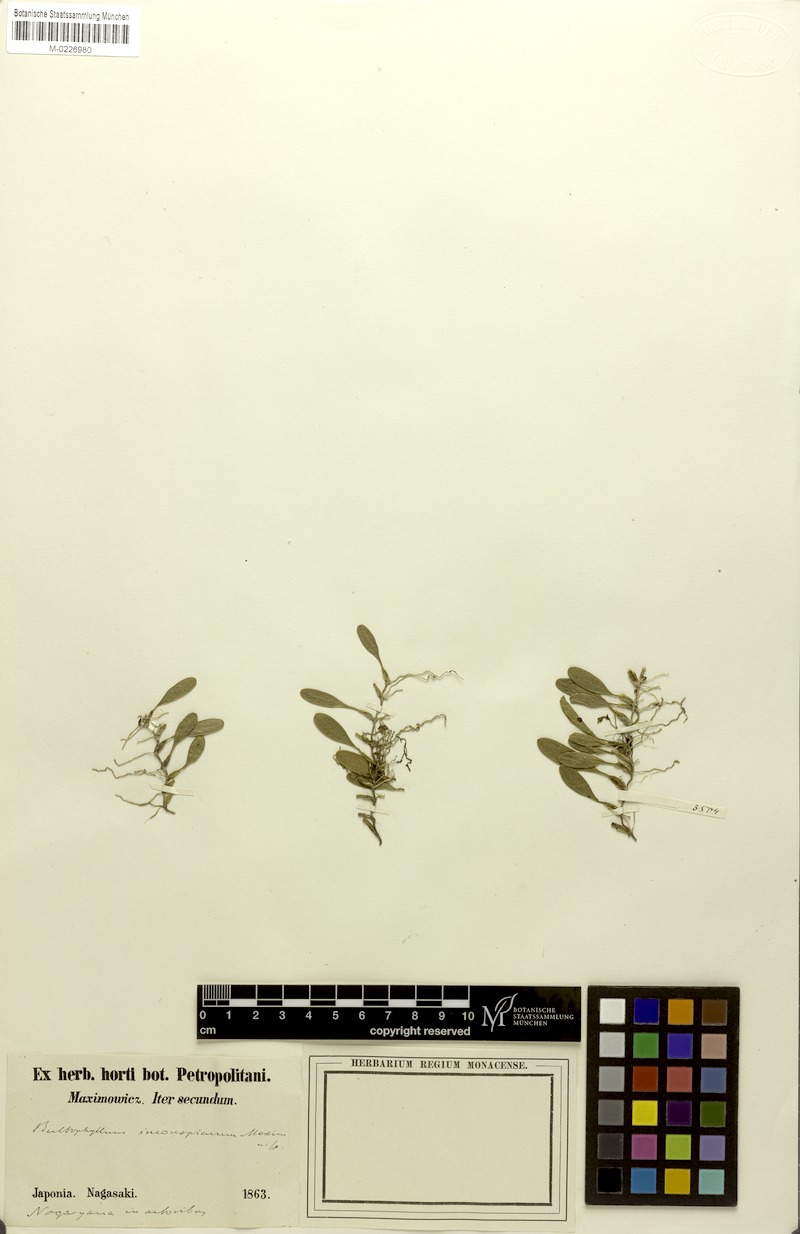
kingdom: Plantae
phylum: Tracheophyta
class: Liliopsida
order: Asparagales
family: Orchidaceae
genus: Bulbophyllum
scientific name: Bulbophyllum inconspicuum
